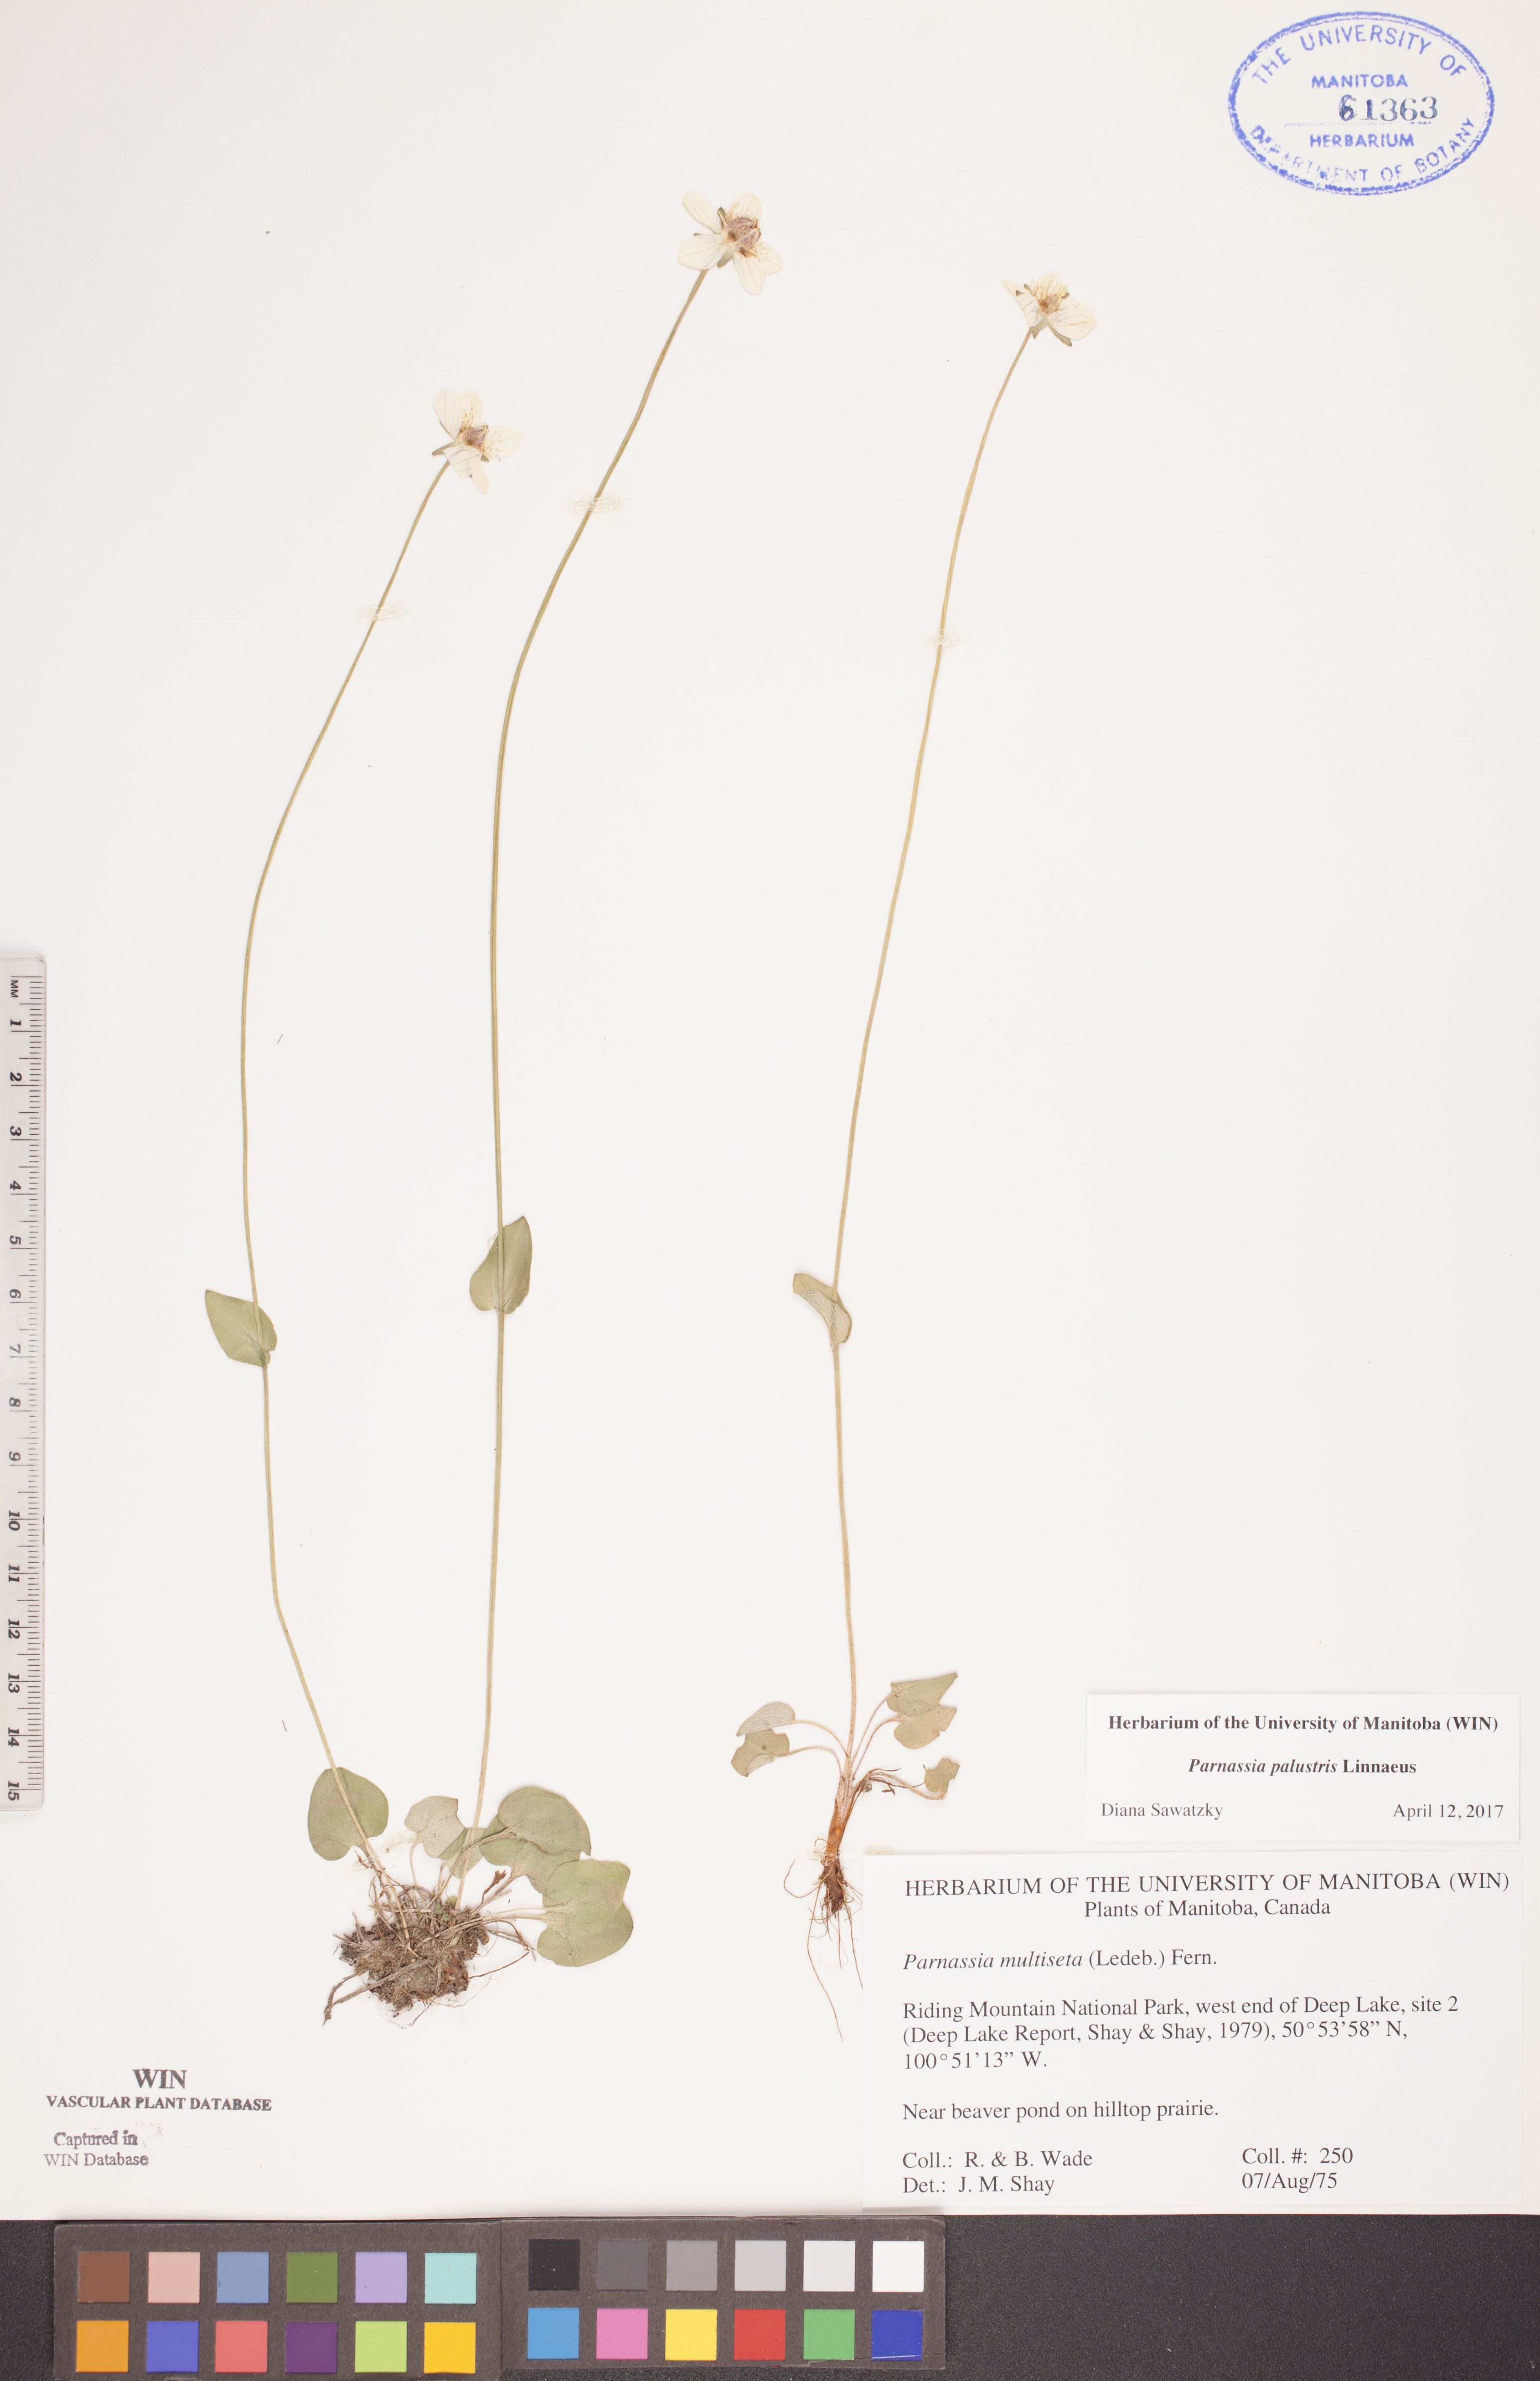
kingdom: Plantae
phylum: Tracheophyta
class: Magnoliopsida
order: Celastrales
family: Parnassiaceae
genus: Parnassia
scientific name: Parnassia palustris
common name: Grass-of-parnassus
